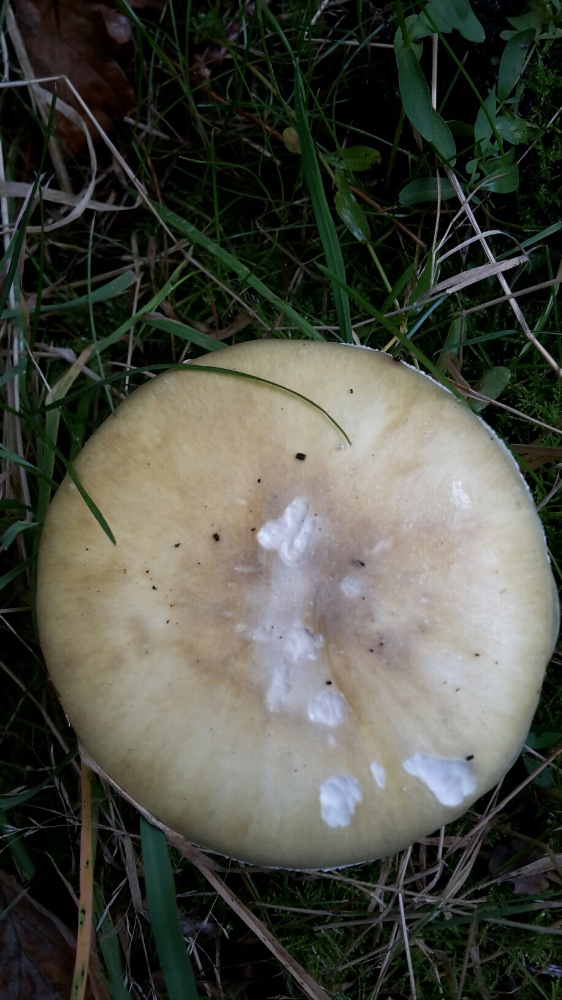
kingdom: Fungi
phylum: Basidiomycota
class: Agaricomycetes
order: Agaricales
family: Amanitaceae
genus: Amanita
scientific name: Amanita phalloides
